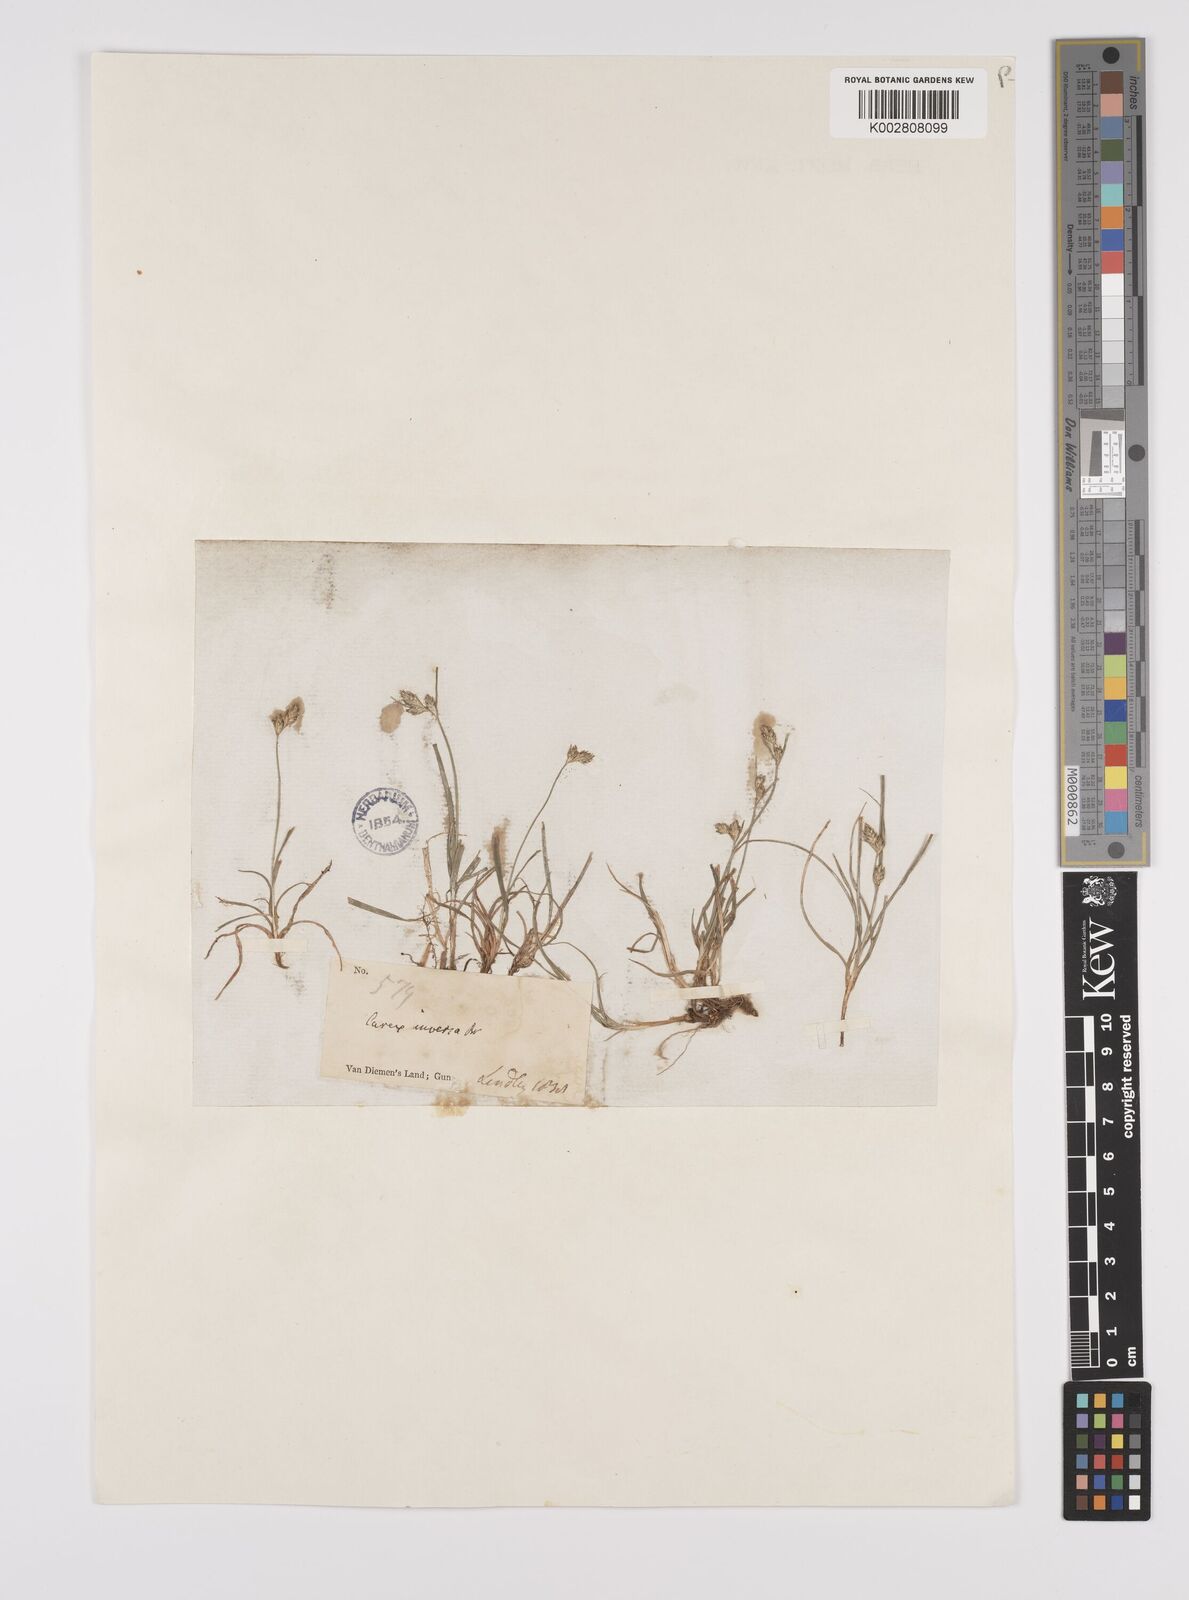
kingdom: Plantae
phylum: Tracheophyta
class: Liliopsida
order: Poales
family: Cyperaceae
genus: Carex
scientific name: Carex inversa
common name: Knob sedge
